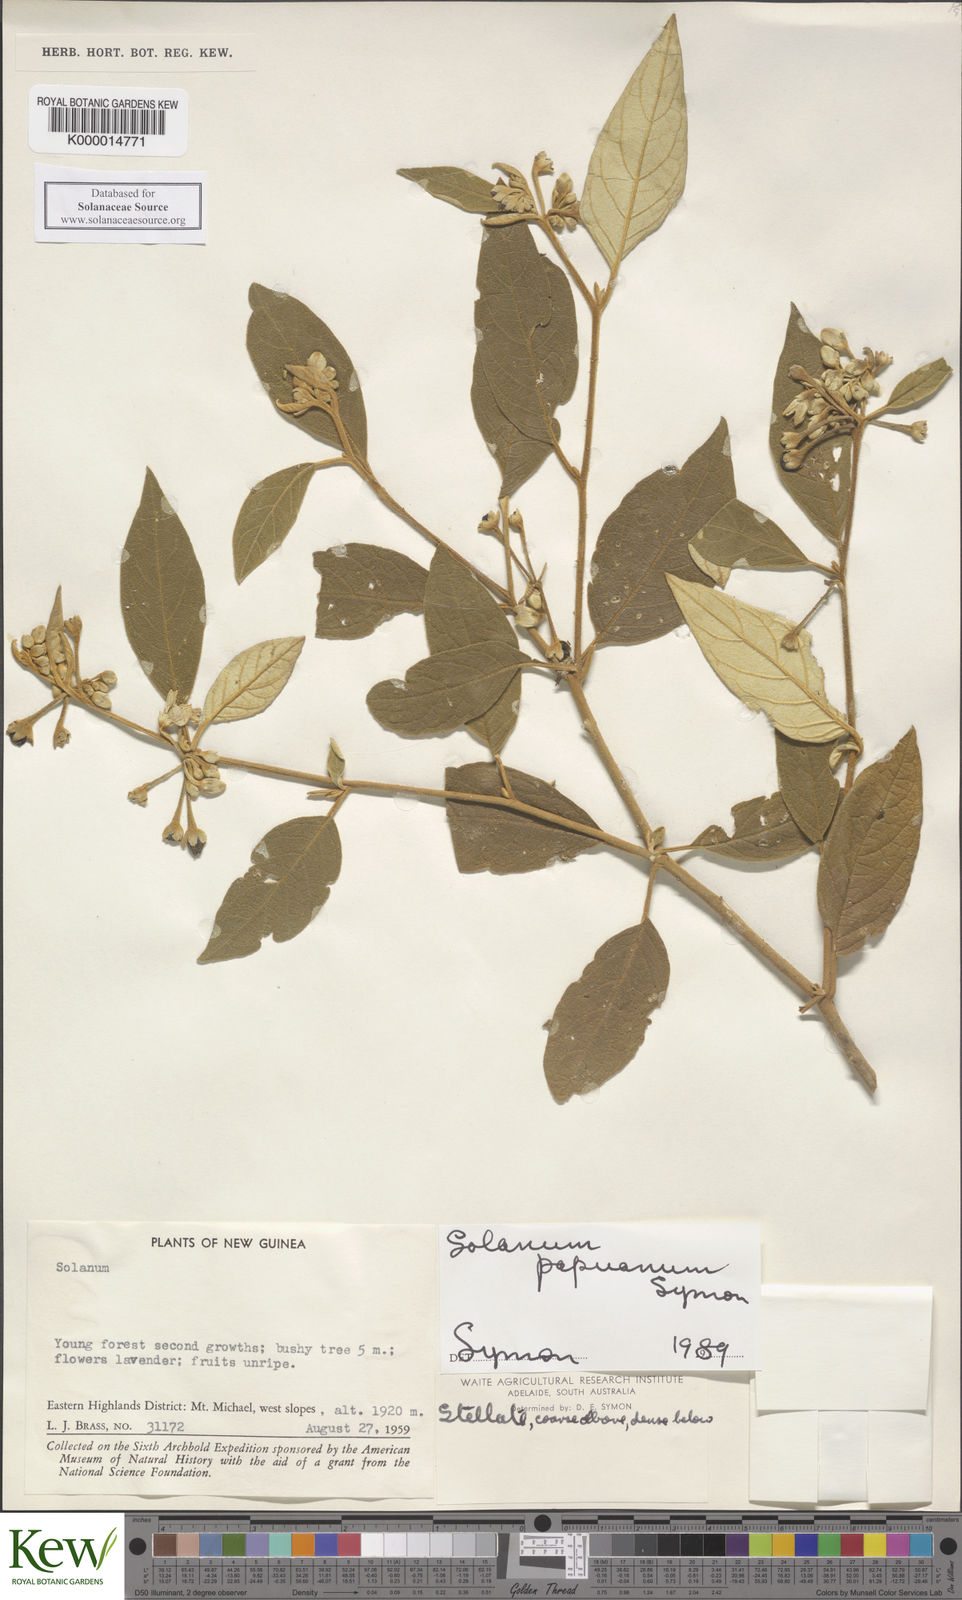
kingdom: Plantae
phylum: Tracheophyta
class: Magnoliopsida
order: Solanales
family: Solanaceae
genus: Solanum
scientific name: Solanum papuanum
